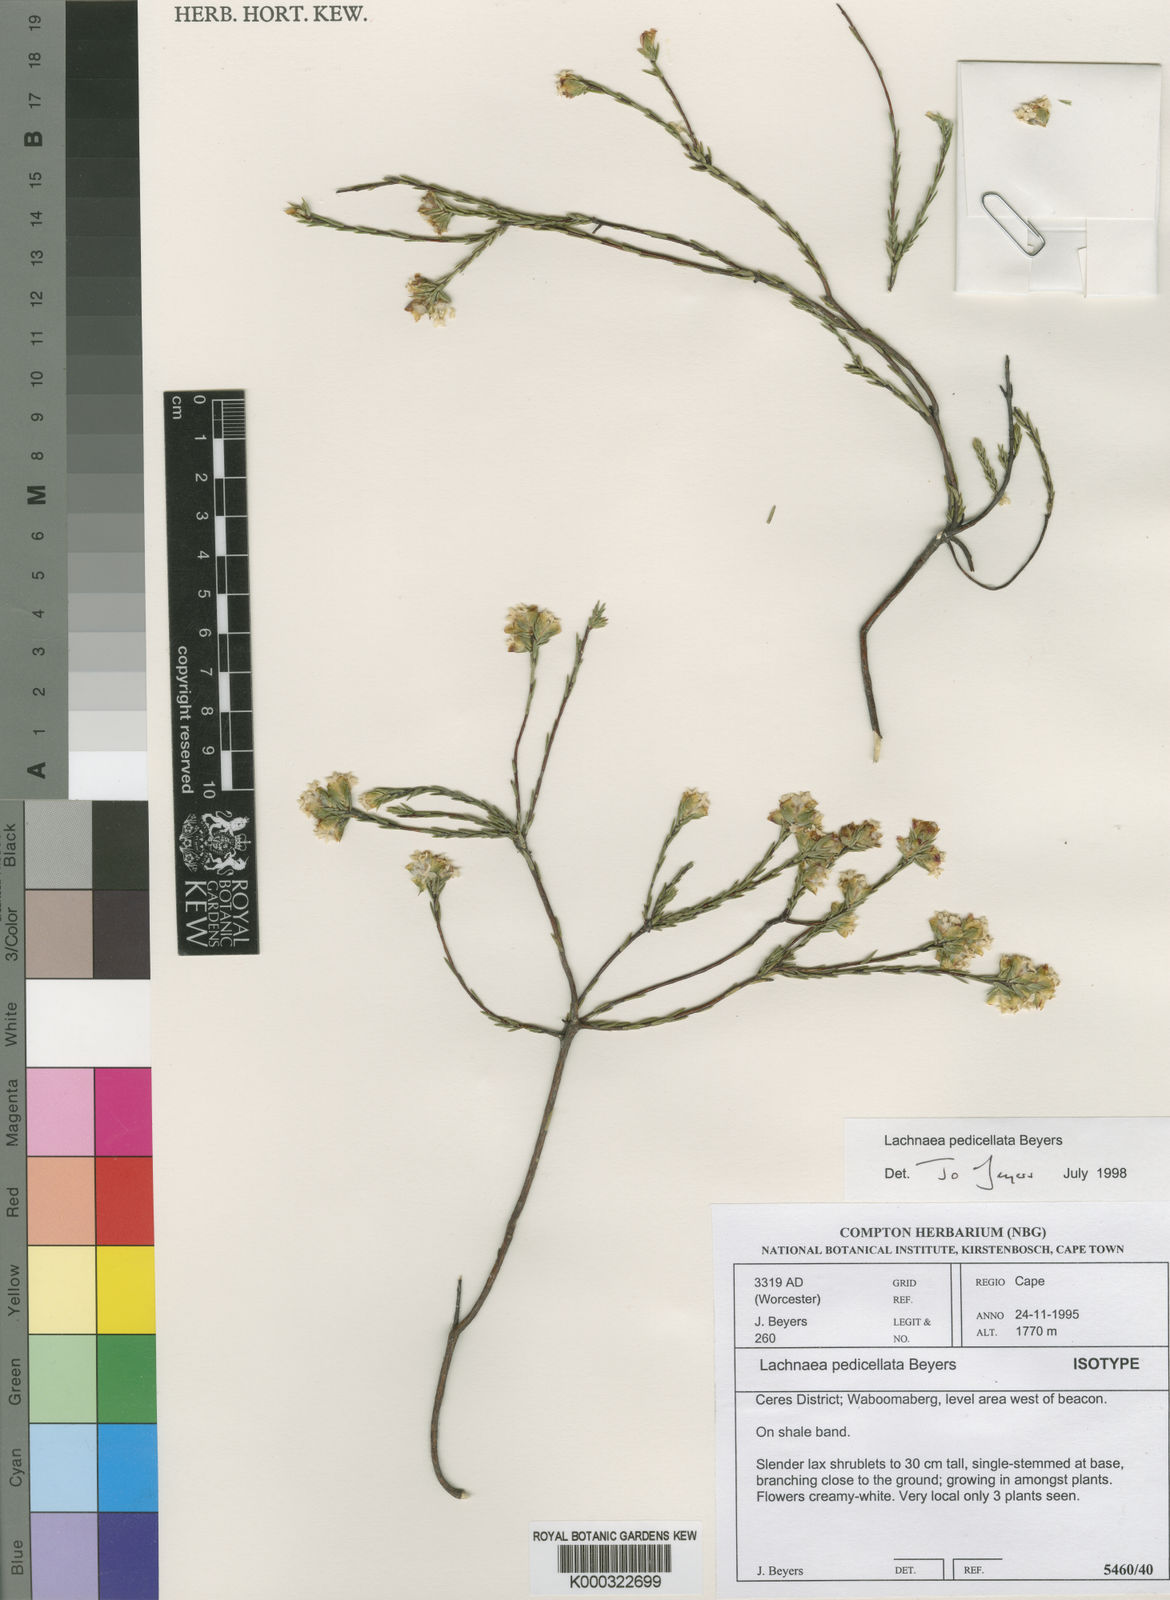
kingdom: Plantae
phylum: Tracheophyta
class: Magnoliopsida
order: Malvales
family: Thymelaeaceae
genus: Lachnaea
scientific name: Lachnaea pedicellata
